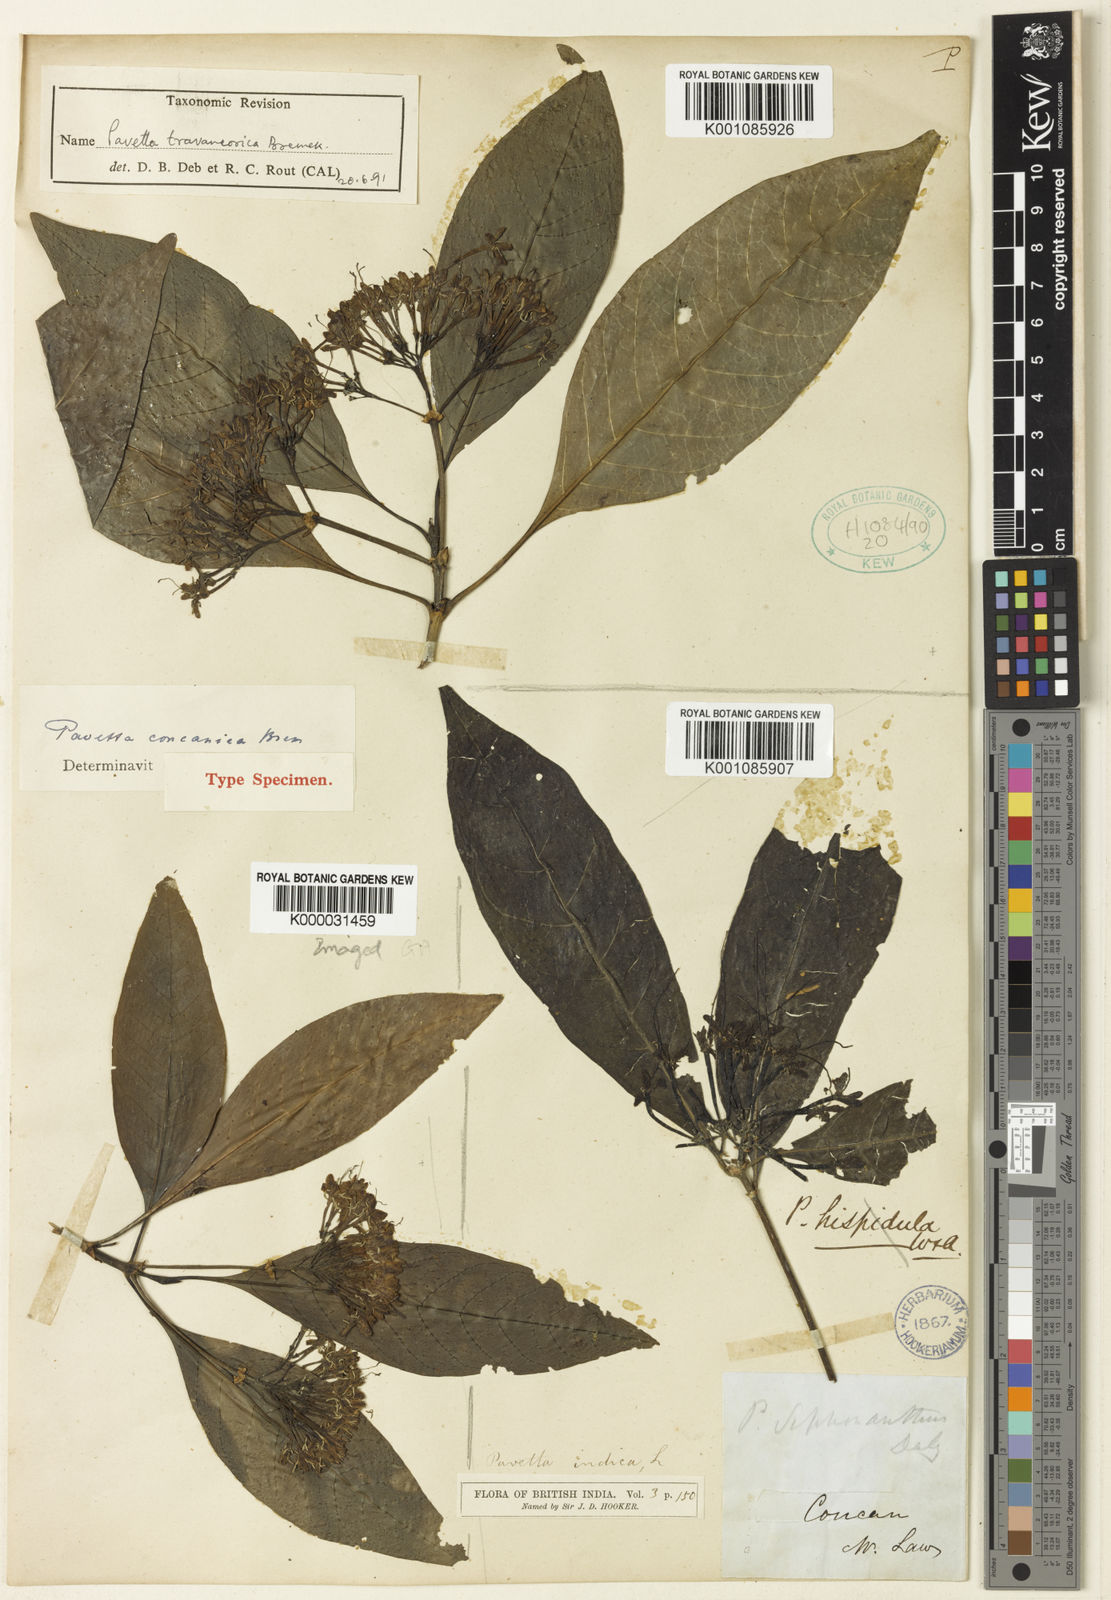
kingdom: Plantae
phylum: Tracheophyta
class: Magnoliopsida
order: Gentianales
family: Rubiaceae
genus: Pavetta
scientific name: Pavetta travancorica
